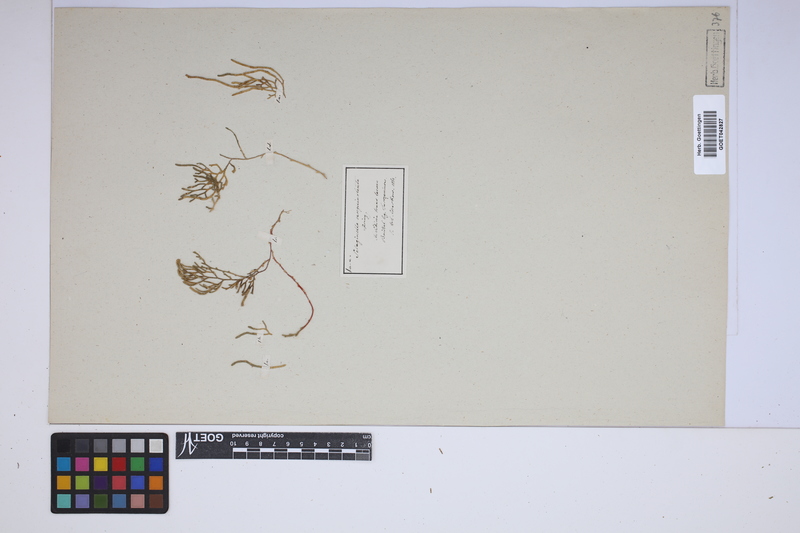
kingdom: Plantae
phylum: Tracheophyta
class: Lycopodiopsida
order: Selaginellales
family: Selaginellaceae
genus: Selaginella
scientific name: Selaginella sanguinolenta
